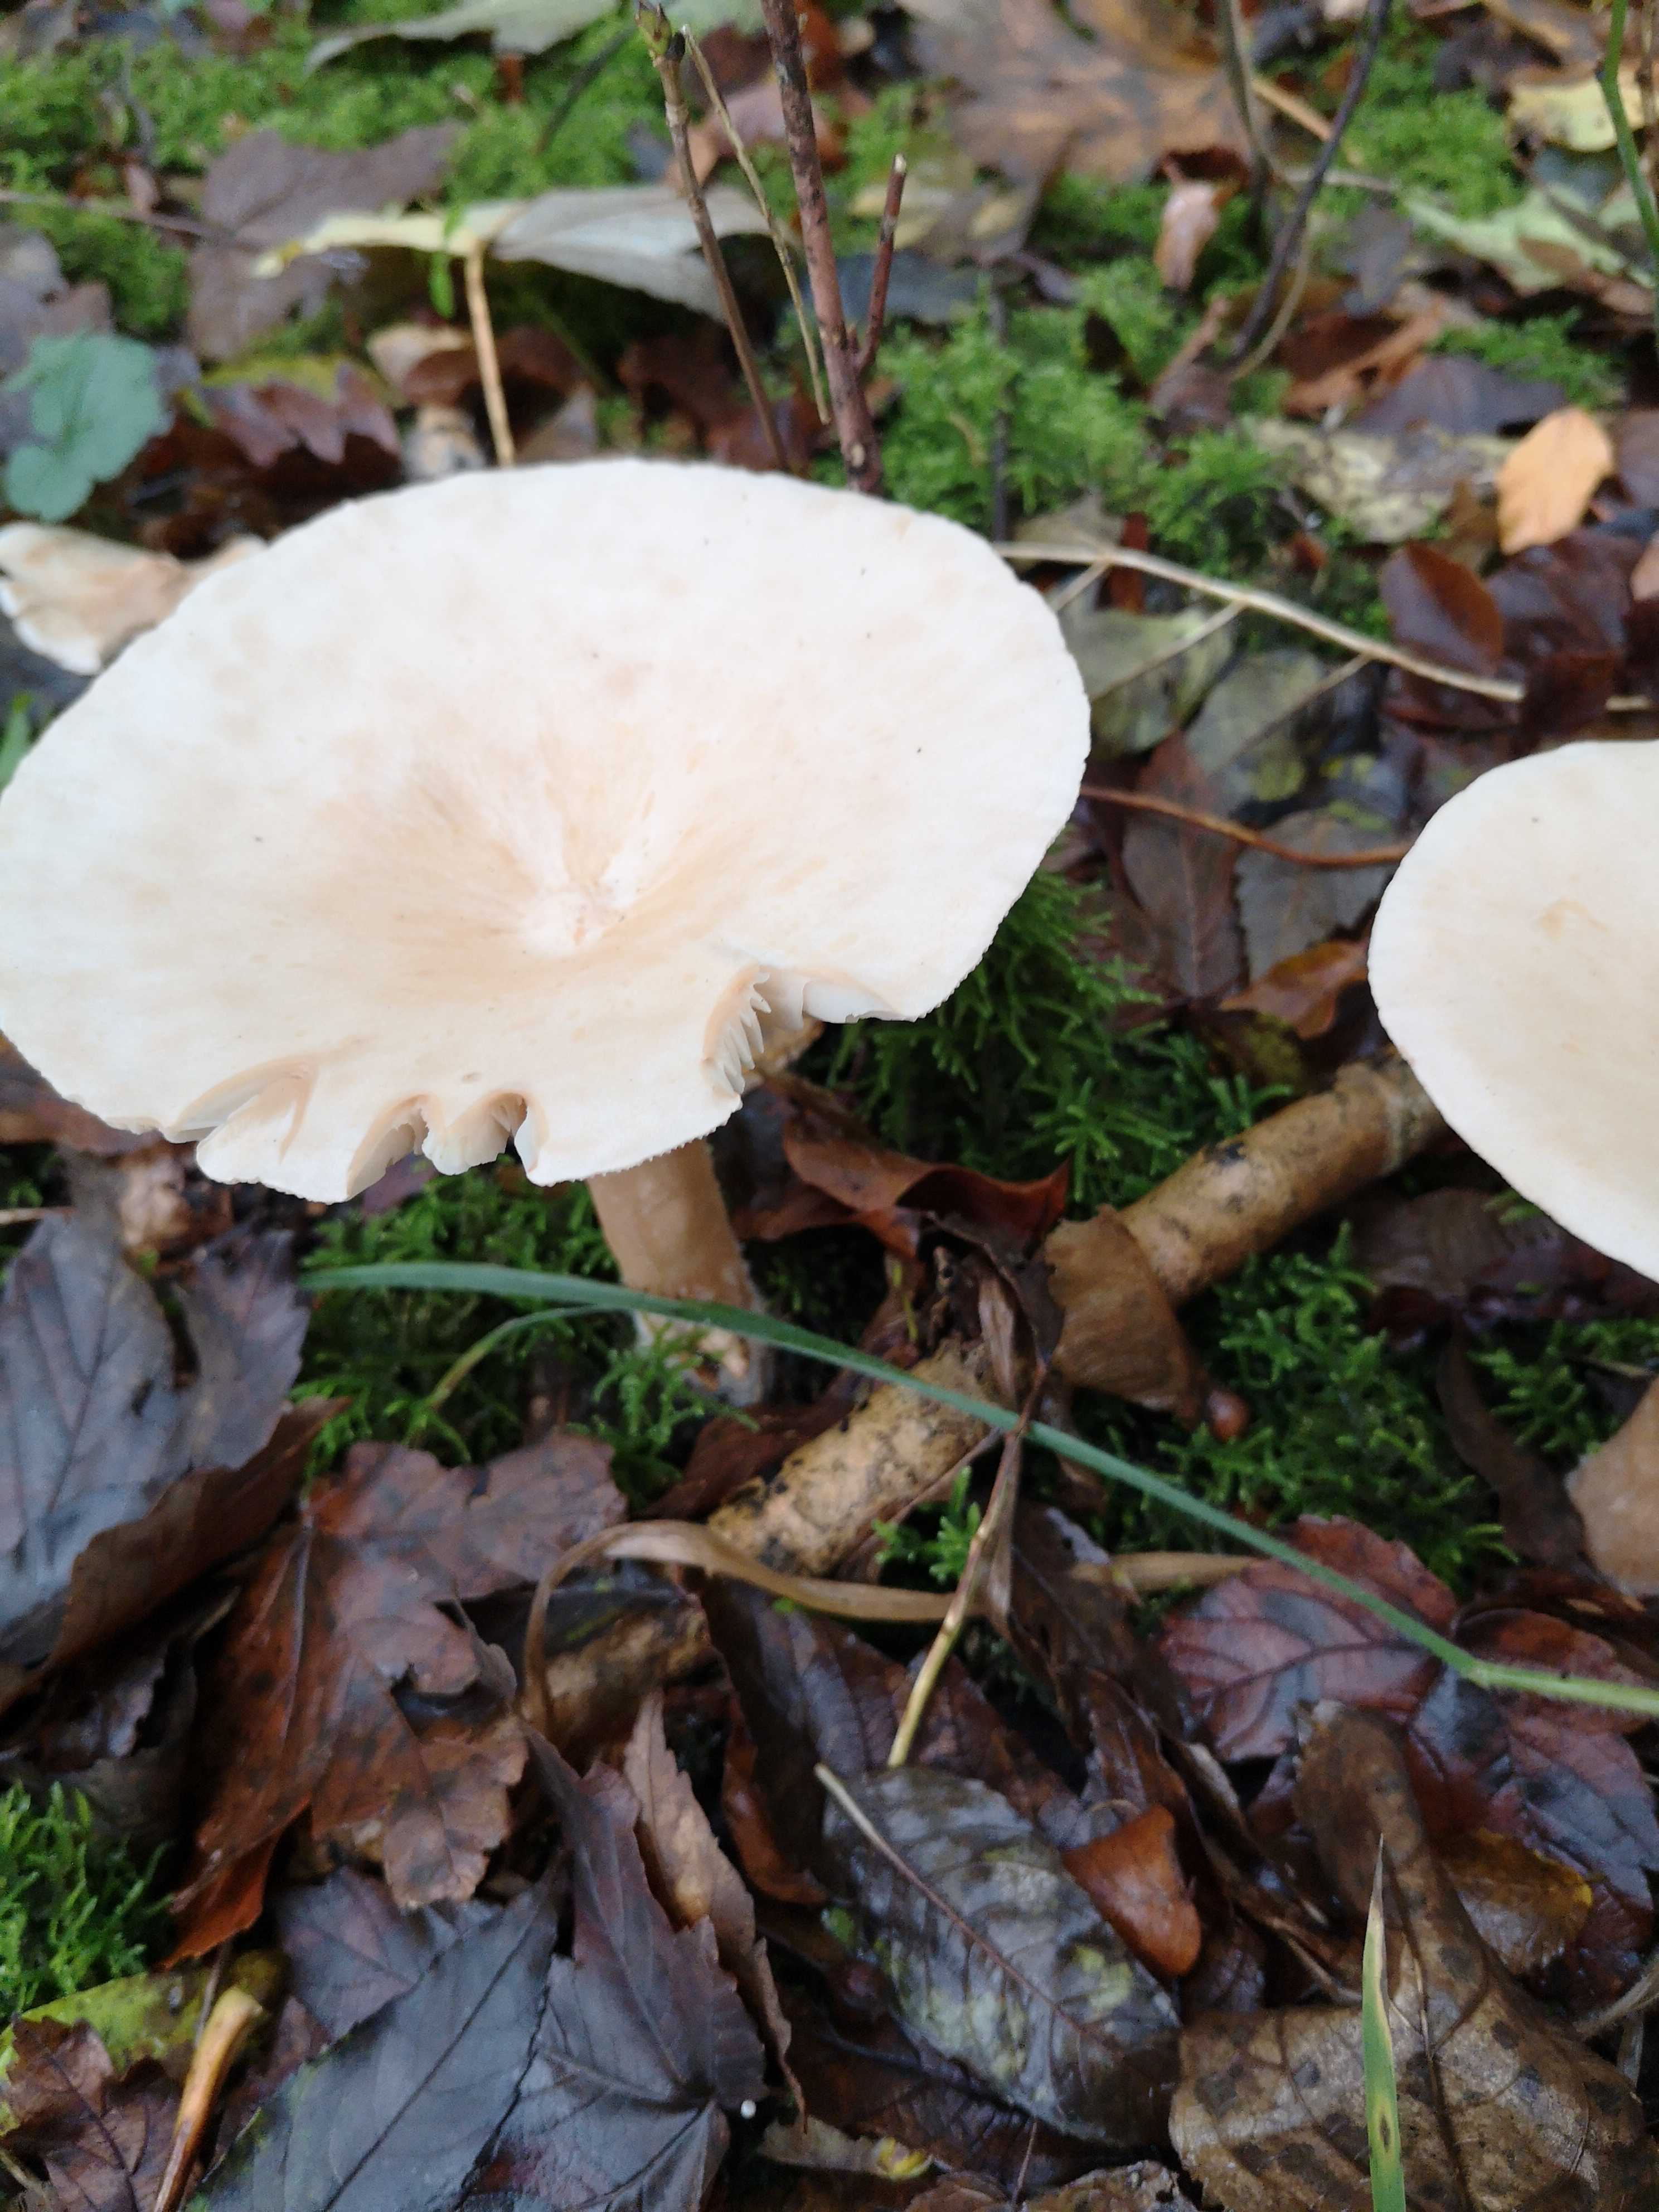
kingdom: Fungi
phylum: Basidiomycota
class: Agaricomycetes
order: Agaricales
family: Tricholomataceae
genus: Infundibulicybe
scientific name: Infundibulicybe geotropa
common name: stor tragthat
